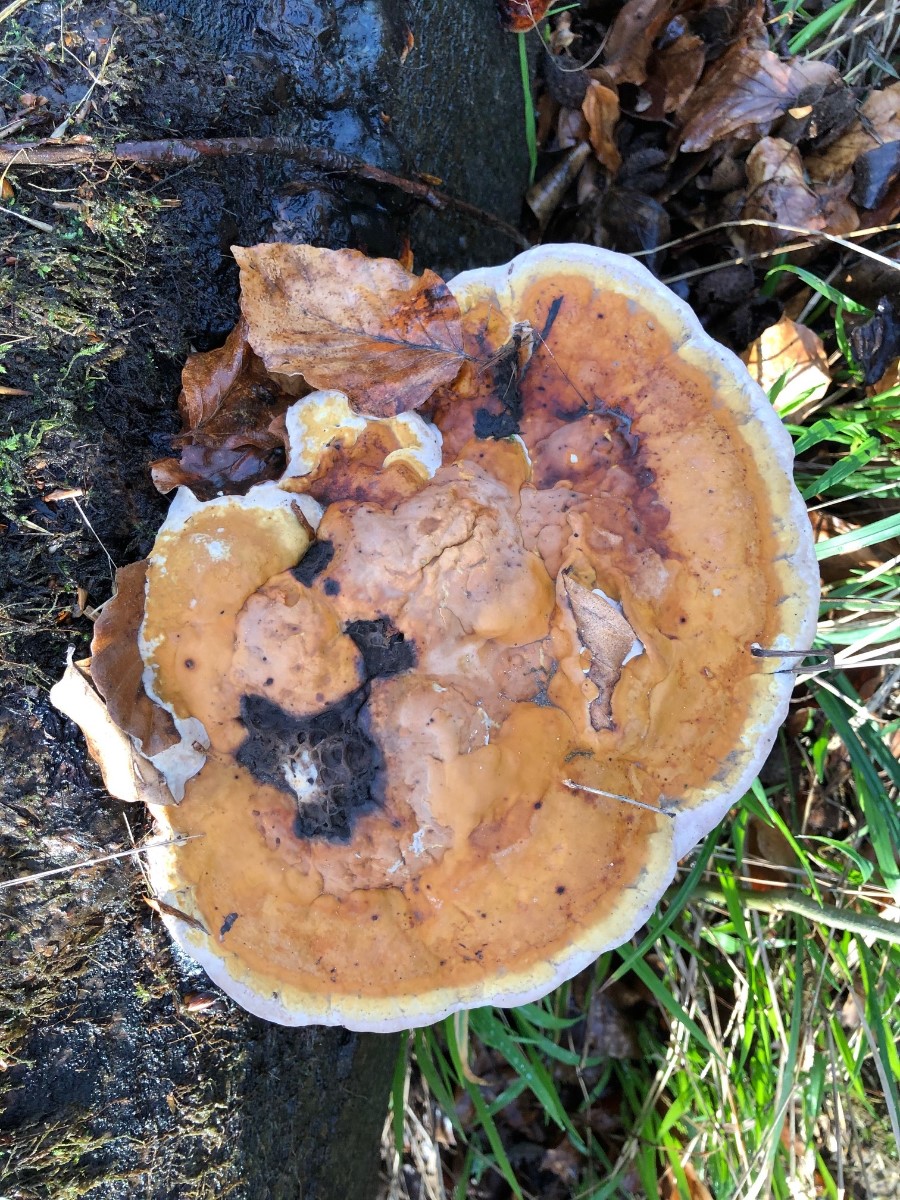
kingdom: Fungi
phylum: Basidiomycota
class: Agaricomycetes
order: Polyporales
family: Fomitopsidaceae
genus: Fomitopsis
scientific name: Fomitopsis pinicola
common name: randbæltet hovporesvamp
